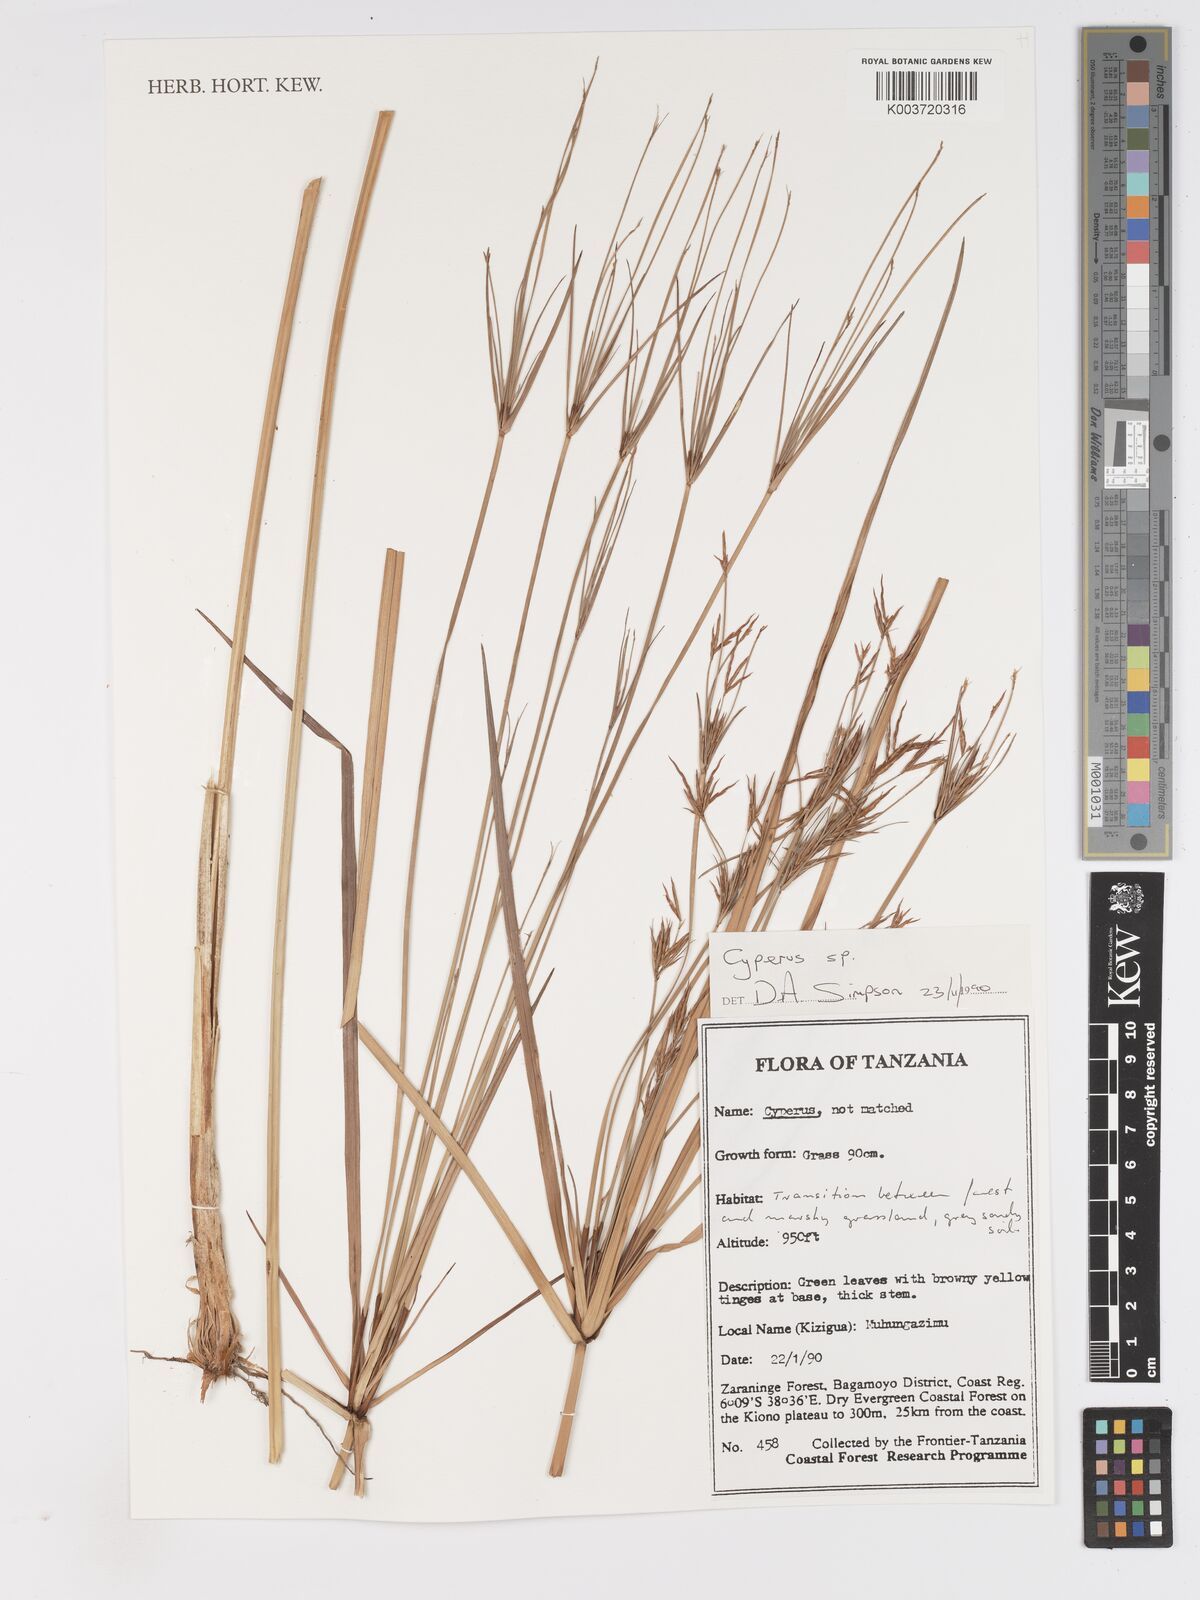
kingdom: Plantae
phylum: Tracheophyta
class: Liliopsida
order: Poales
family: Cyperaceae
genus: Cyperus
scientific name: Cyperus
